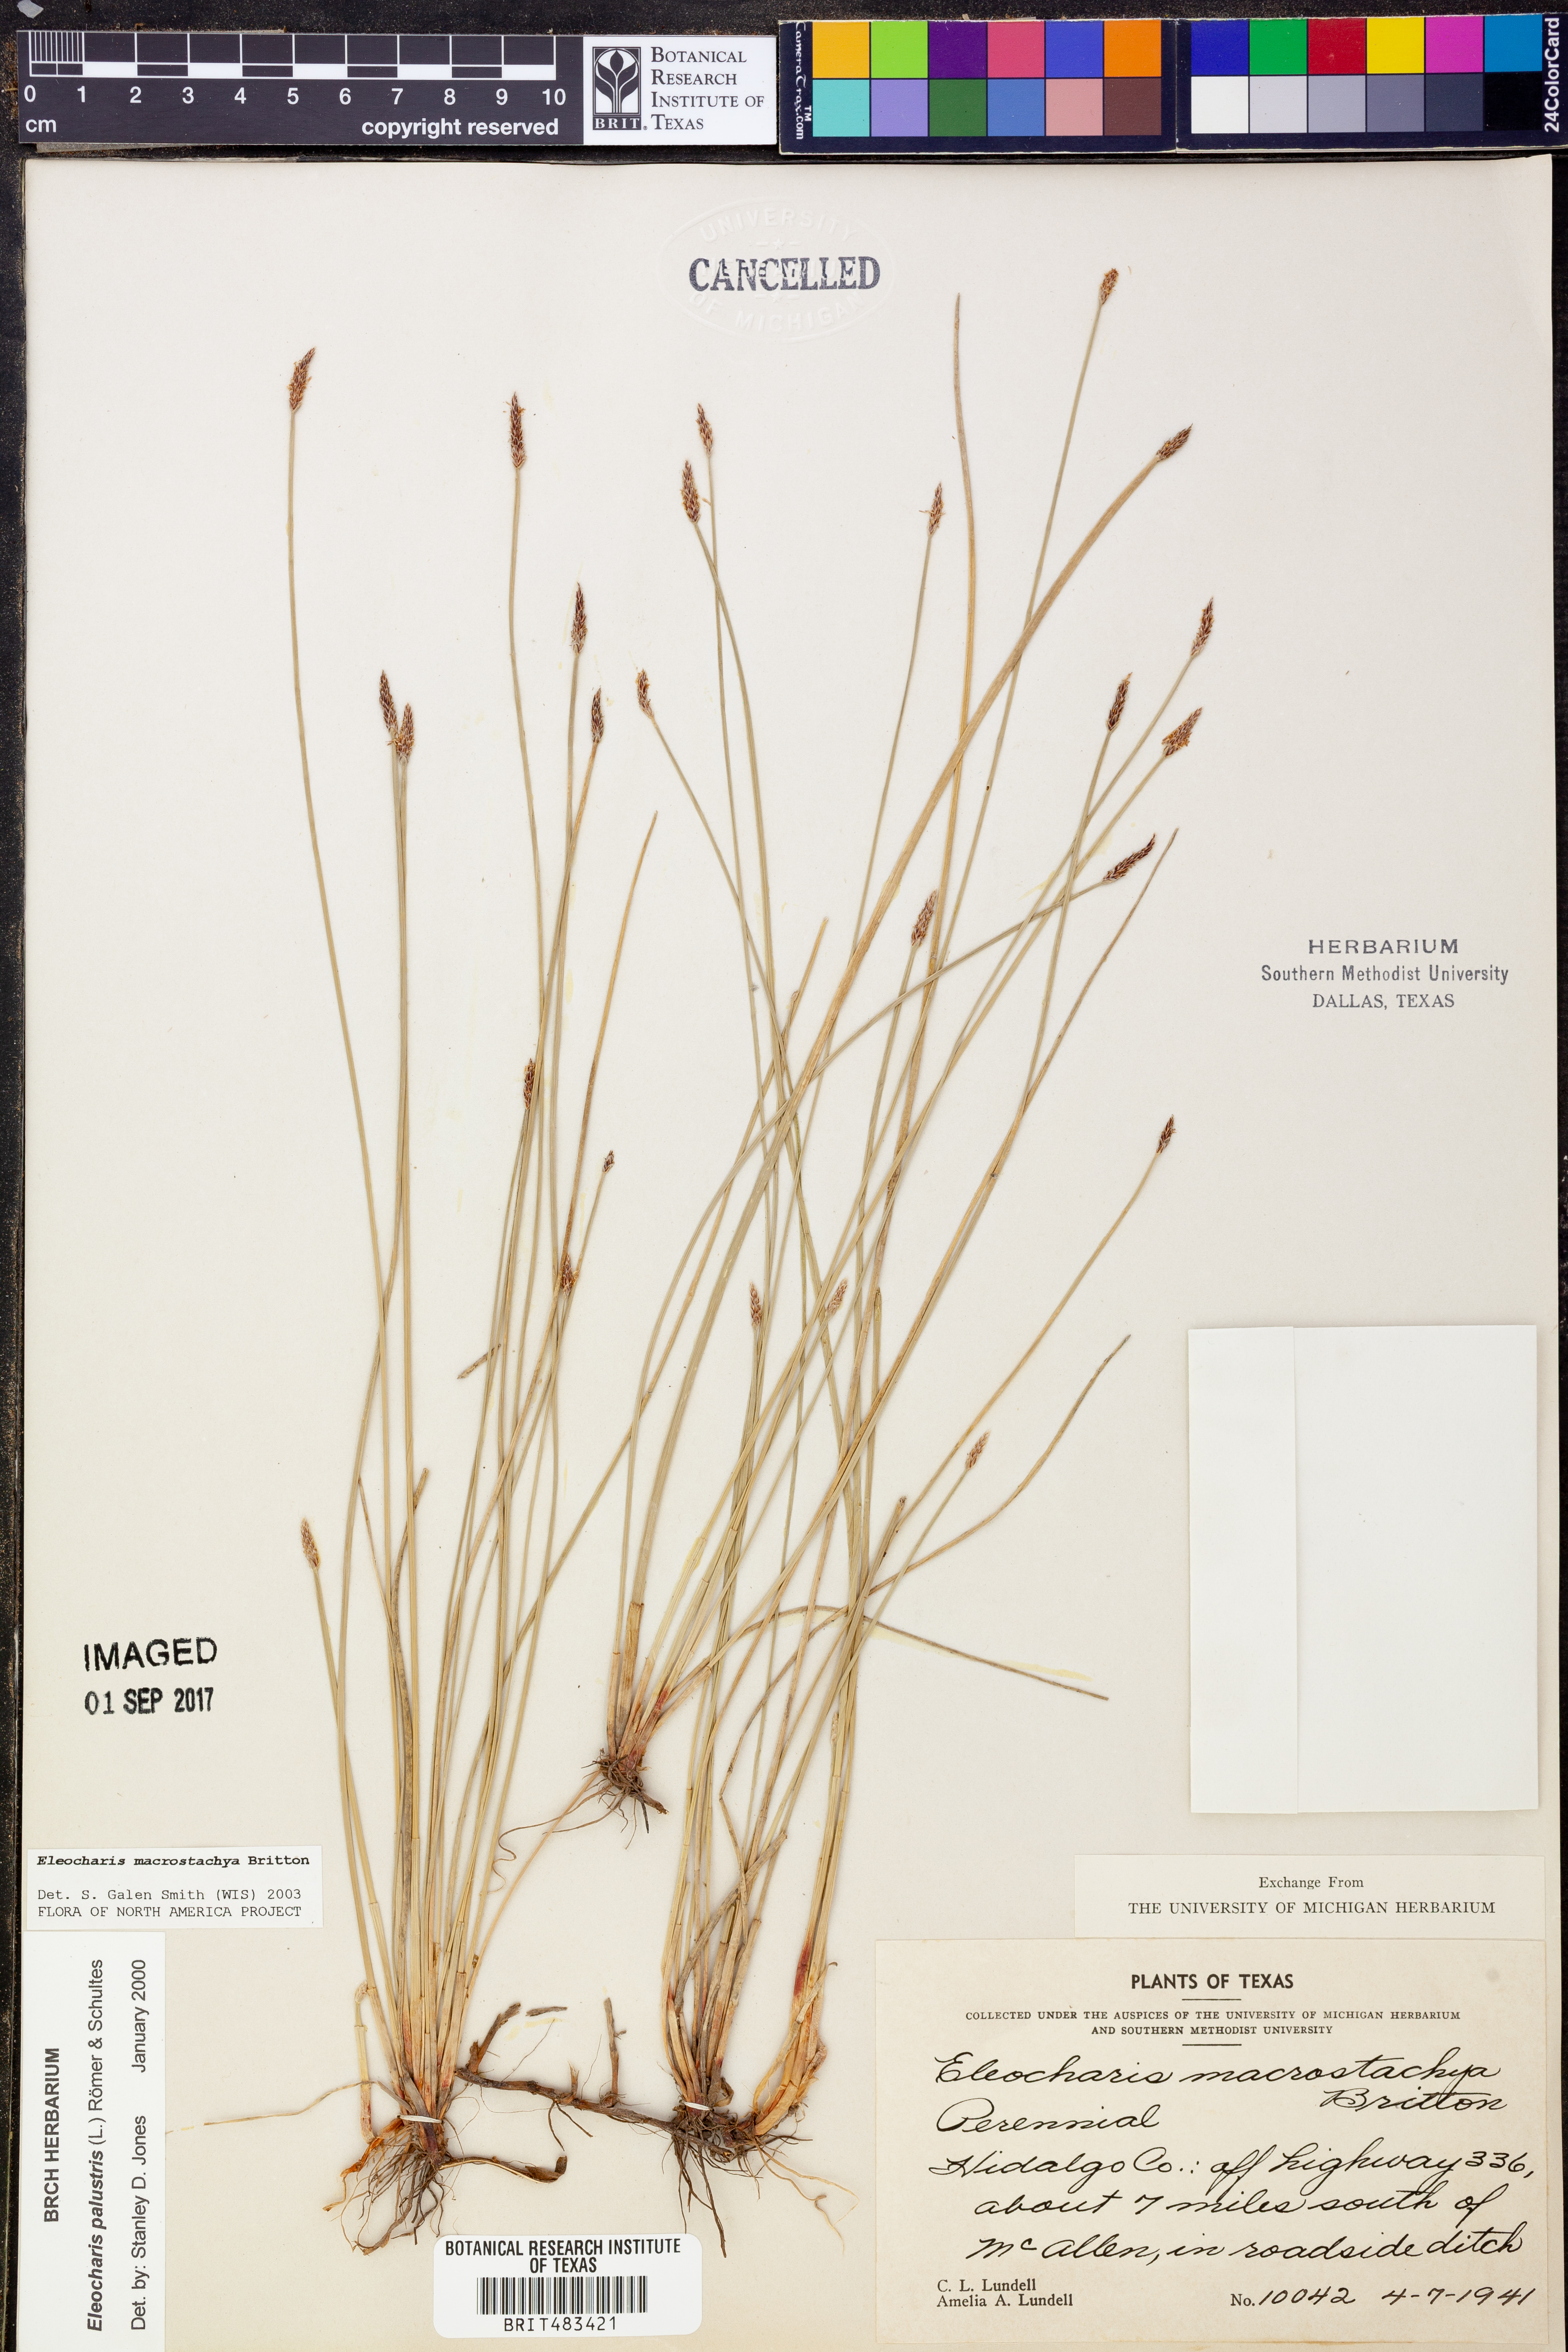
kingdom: Plantae
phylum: Tracheophyta
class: Liliopsida
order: Poales
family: Cyperaceae
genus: Eleocharis
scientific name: Eleocharis macrostachya
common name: Pale spikerush
